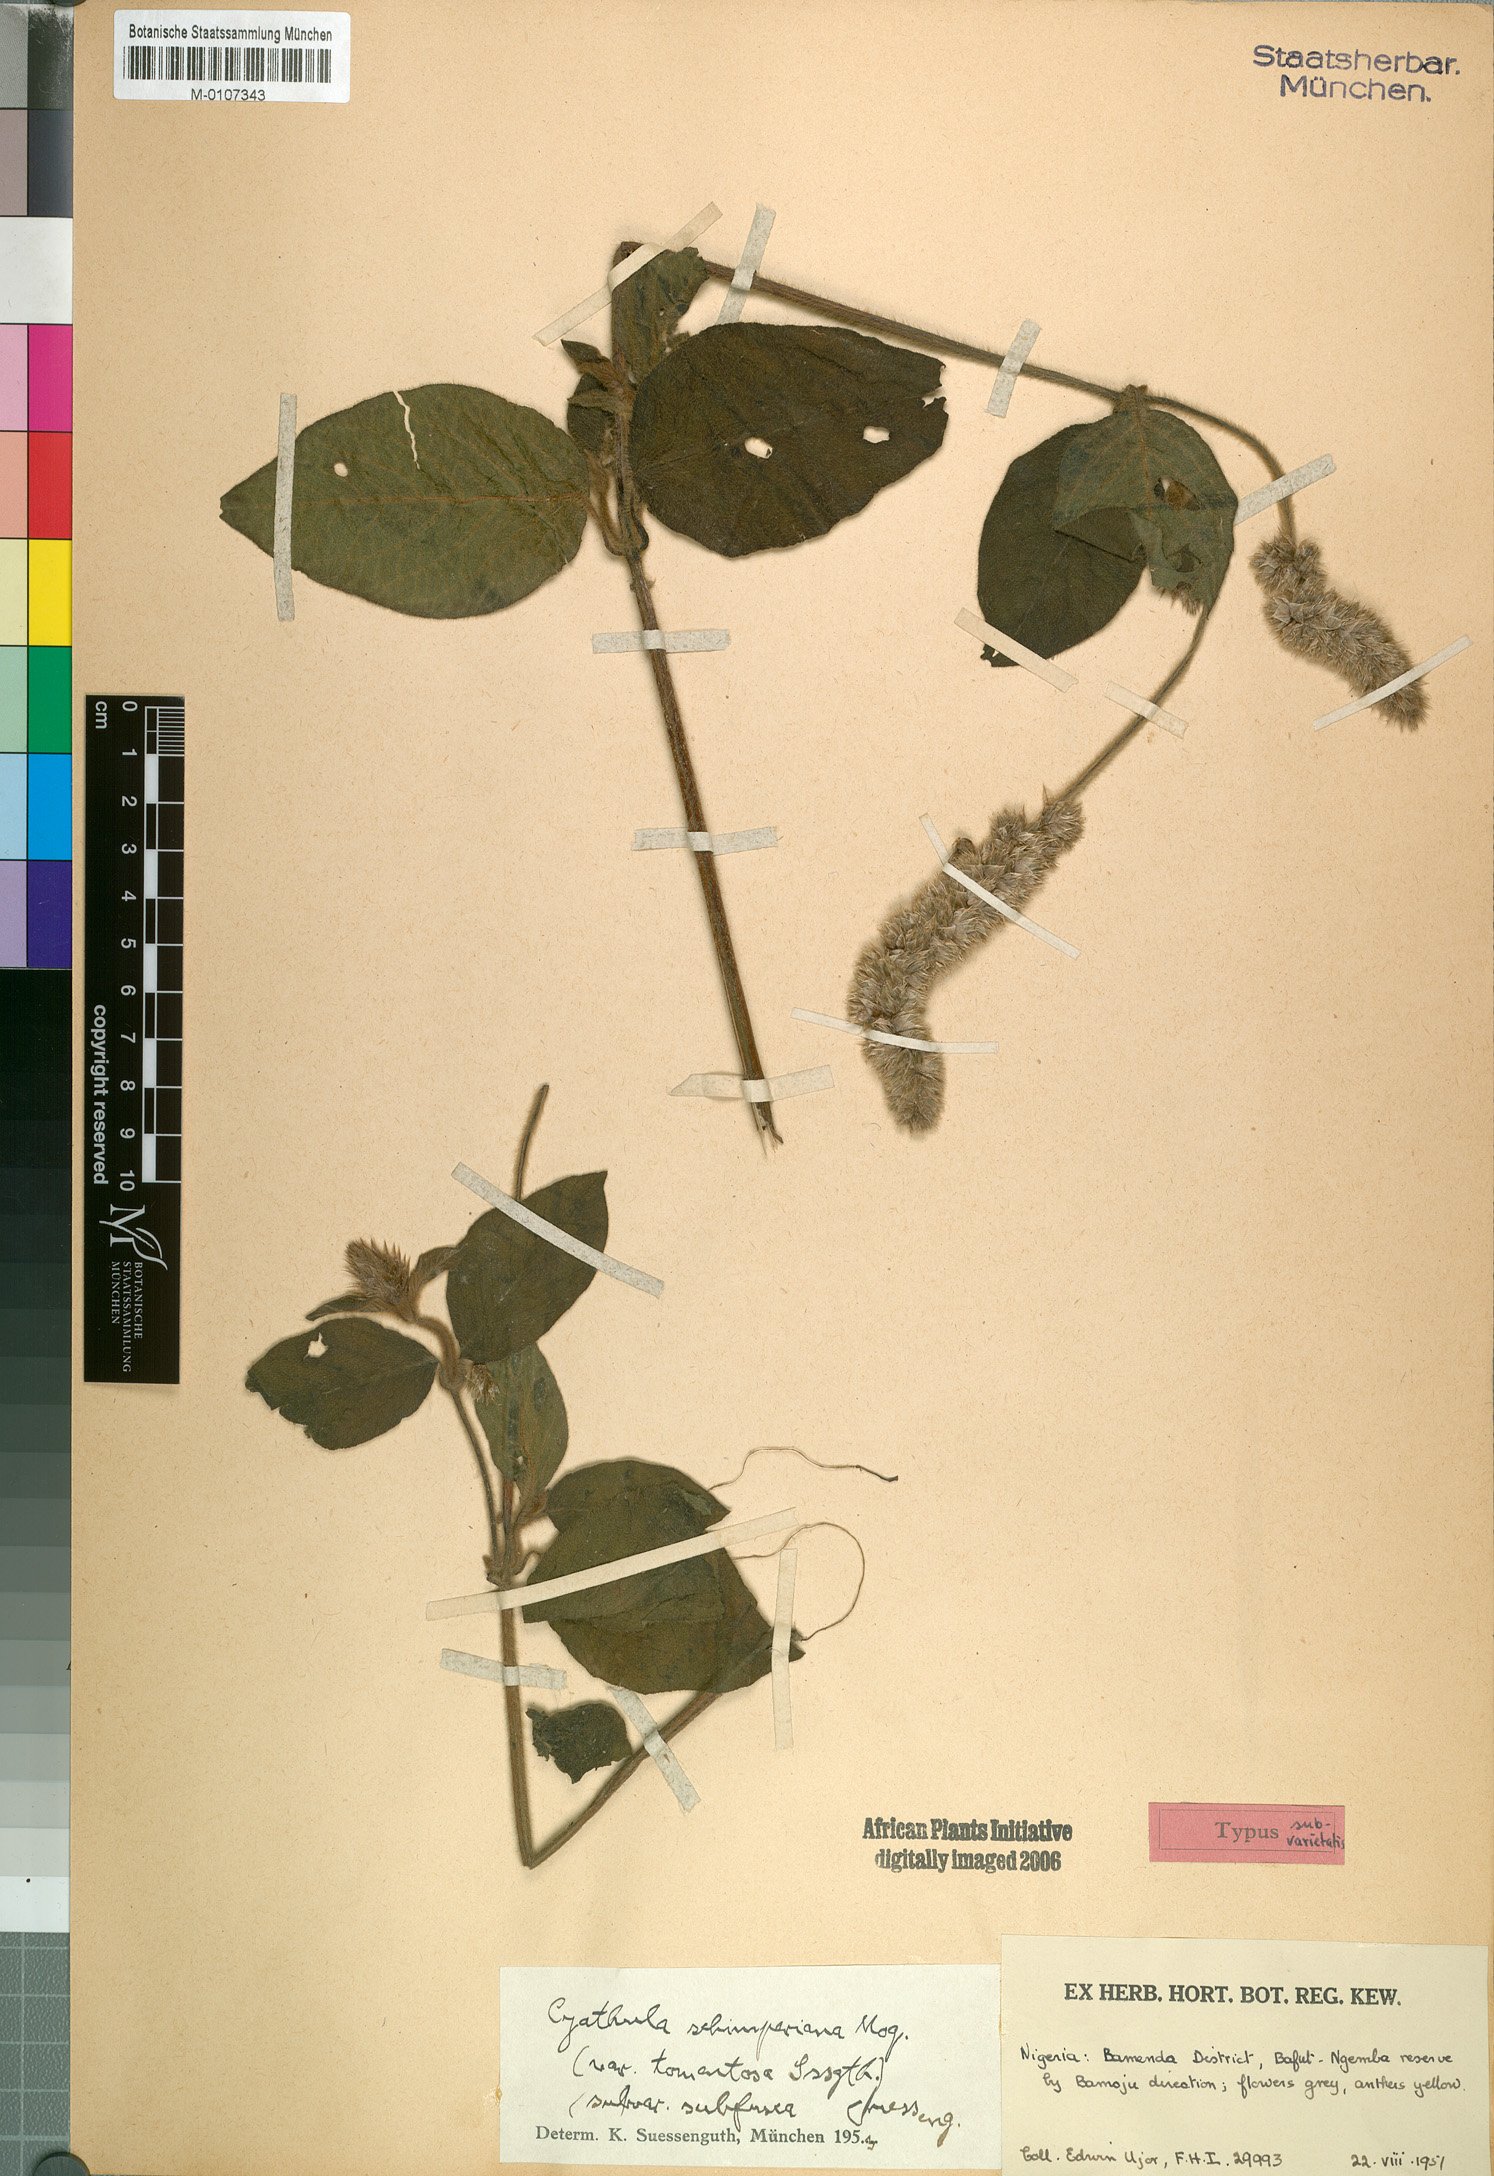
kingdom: Plantae
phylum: Tracheophyta
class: Magnoliopsida
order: Caryophyllales
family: Amaranthaceae
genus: Cyathula
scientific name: Cyathula cylindrica
